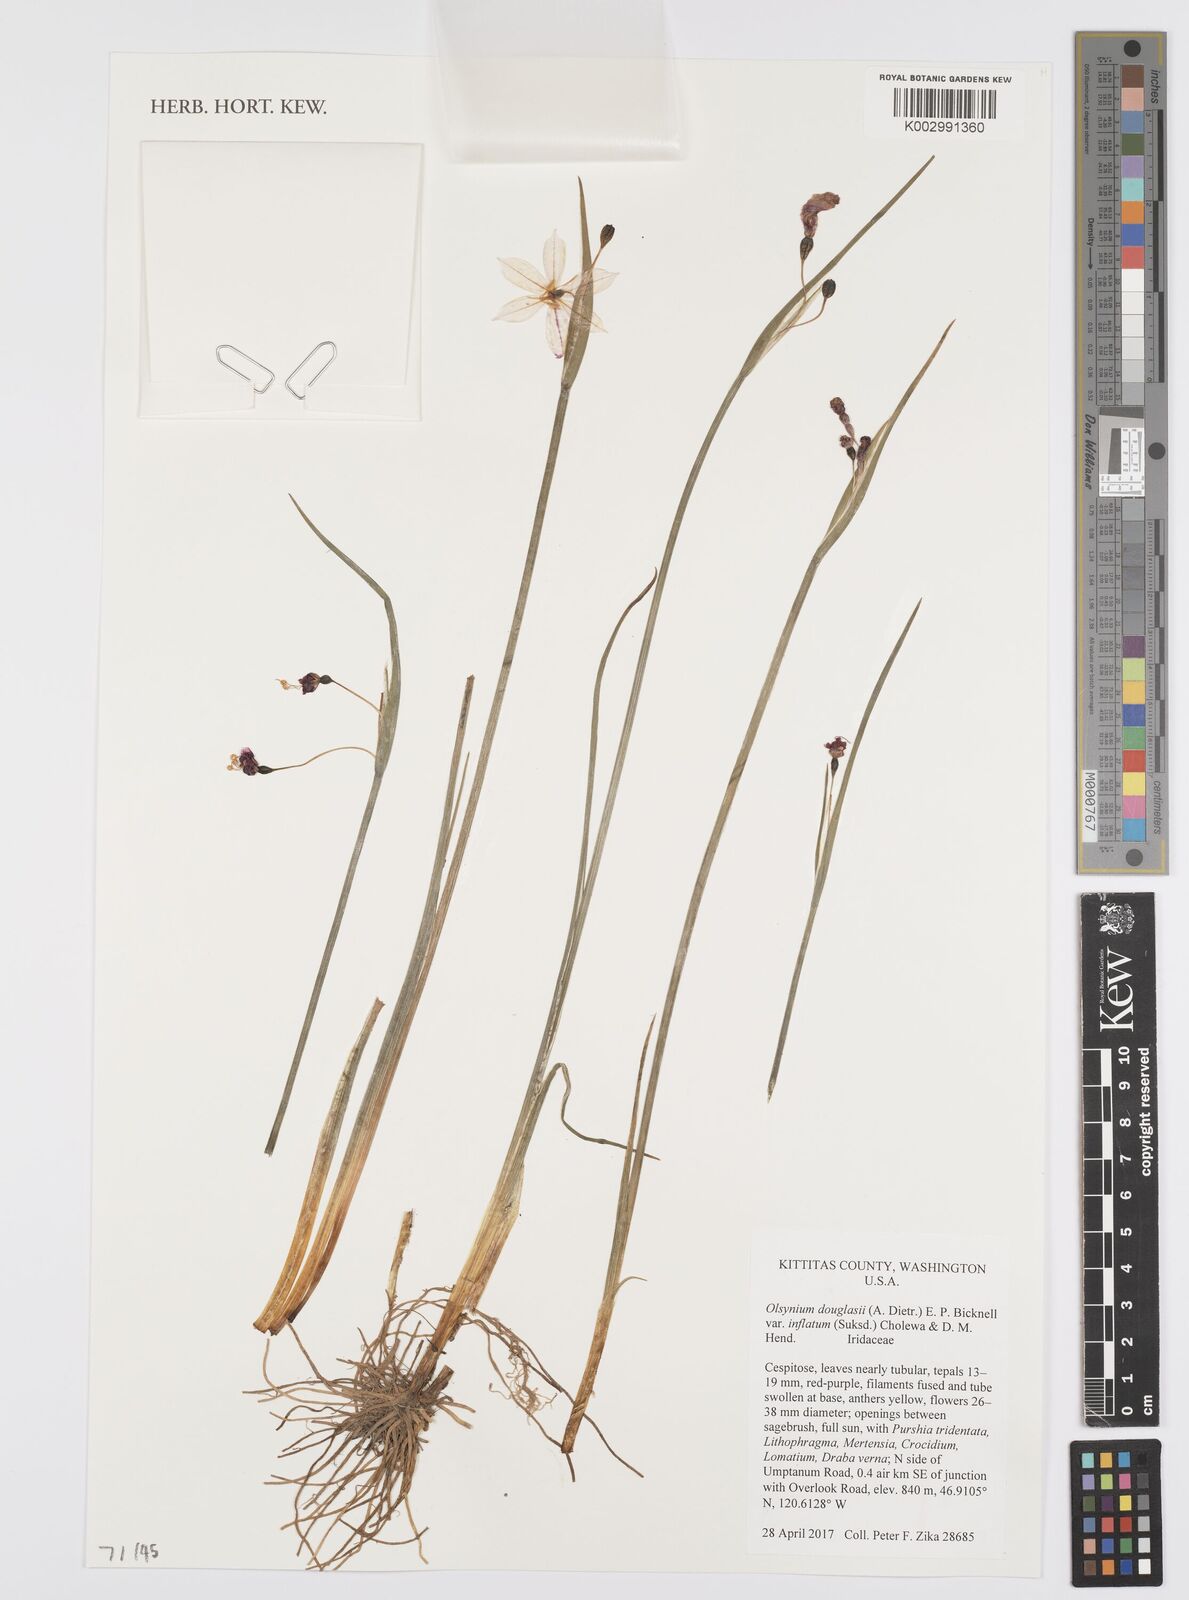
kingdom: Plantae
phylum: Tracheophyta
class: Liliopsida
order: Asparagales
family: Iridaceae
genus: Olsynium
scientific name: Olsynium douglasii
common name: Douglas' grasswidow
